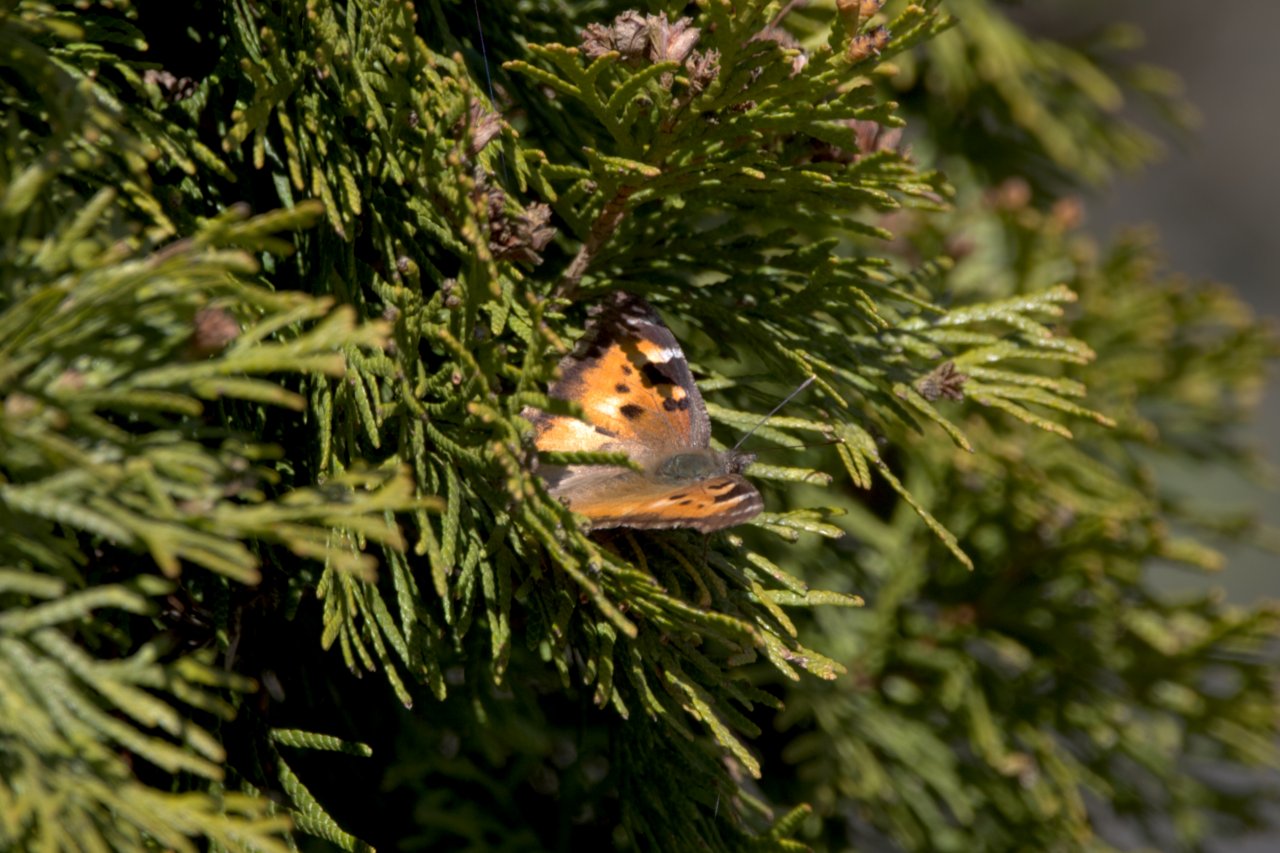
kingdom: Animalia
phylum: Arthropoda
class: Insecta
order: Lepidoptera
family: Nymphalidae
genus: Nymphalis
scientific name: Nymphalis californica
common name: California Tortoiseshell
